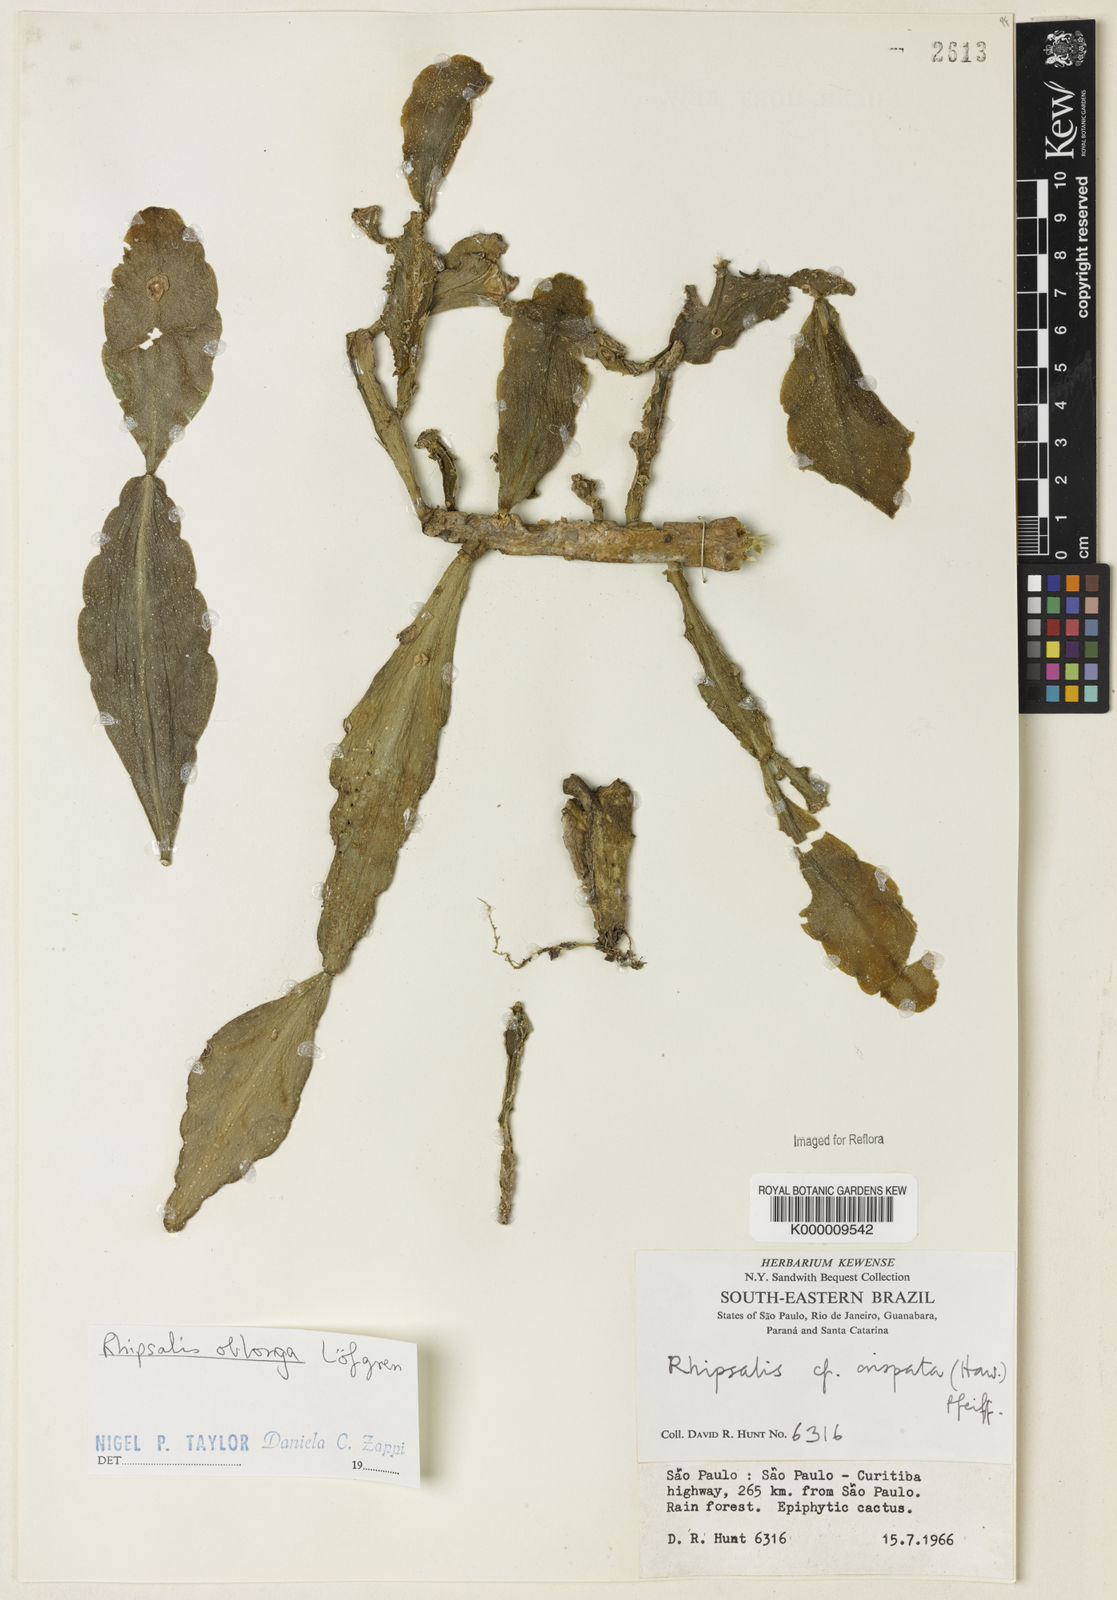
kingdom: Plantae
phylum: Tracheophyta
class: Magnoliopsida
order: Caryophyllales
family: Cactaceae
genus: Rhipsalis
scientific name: Rhipsalis
